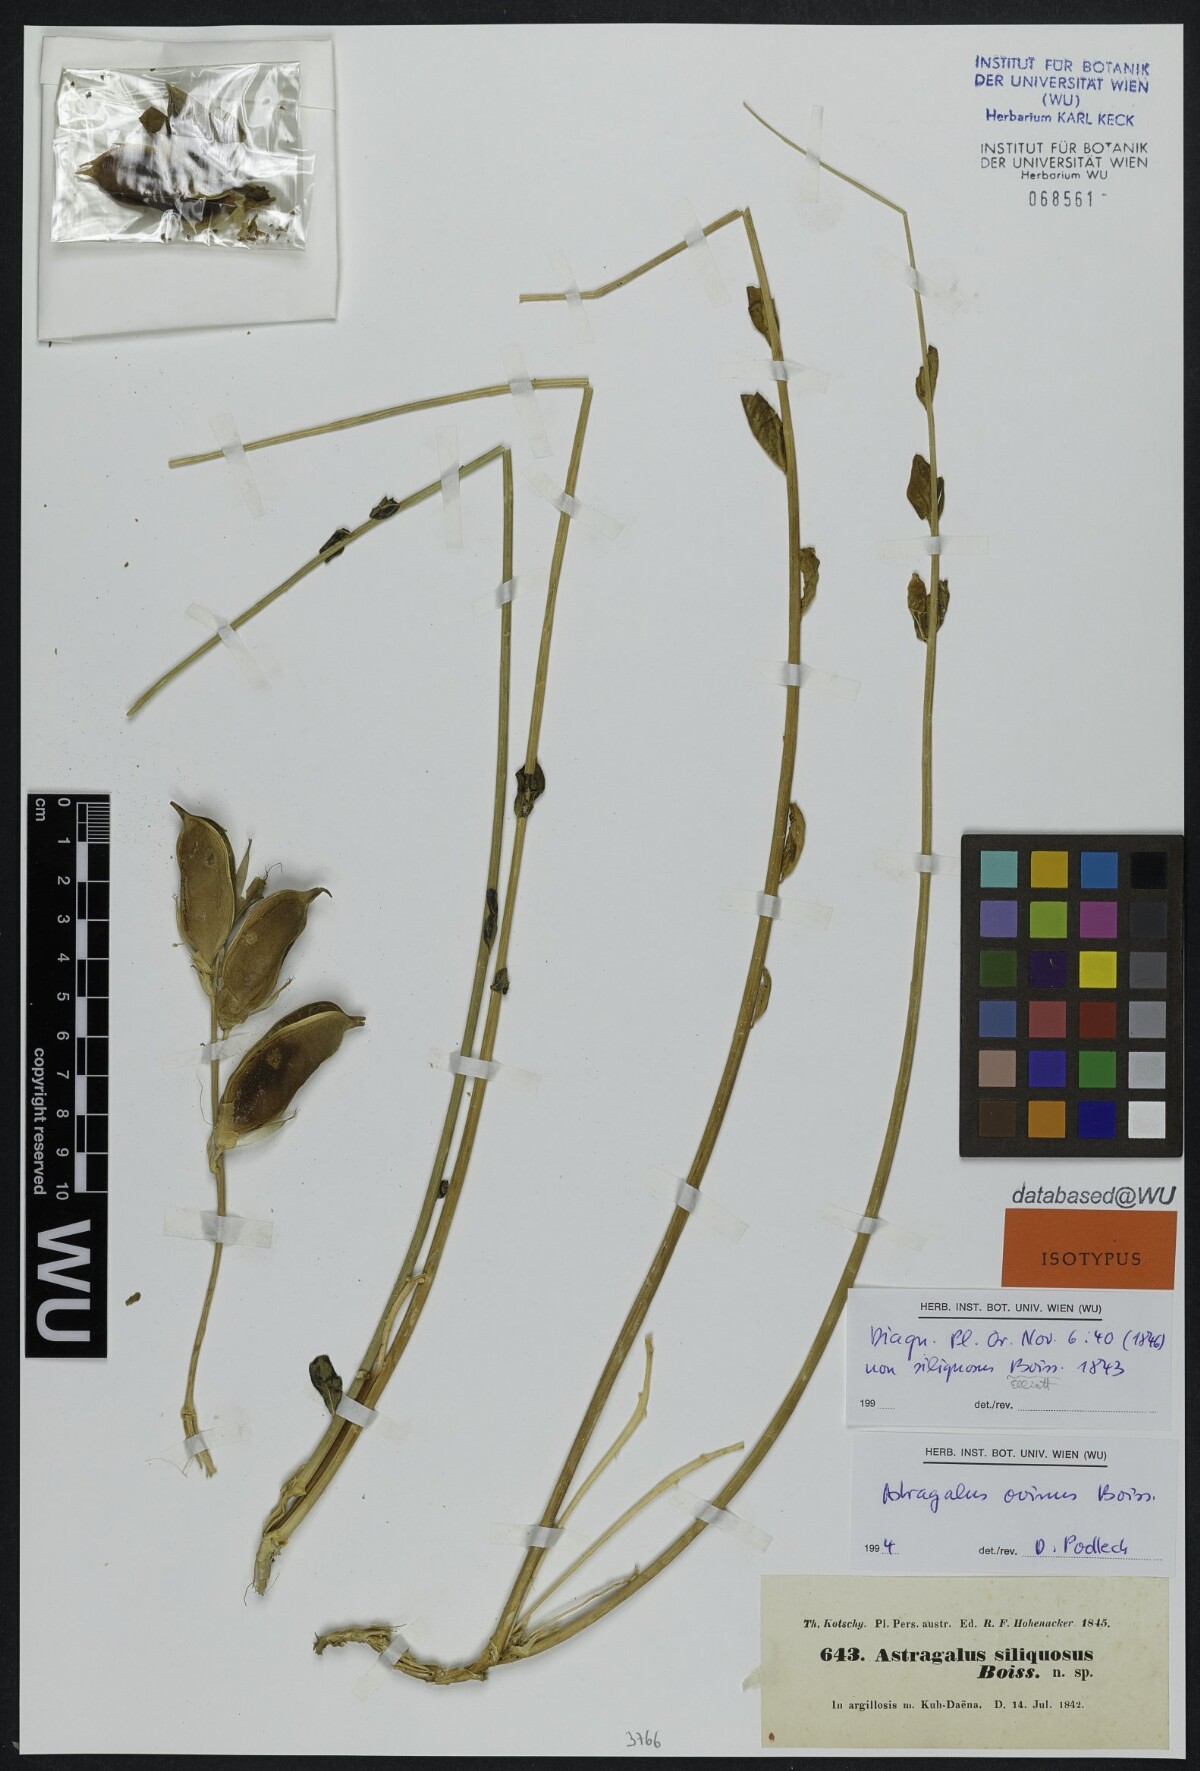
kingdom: Plantae
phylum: Tracheophyta
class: Magnoliopsida
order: Fabales
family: Fabaceae
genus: Astragalus
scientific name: Astragalus siliquosus
